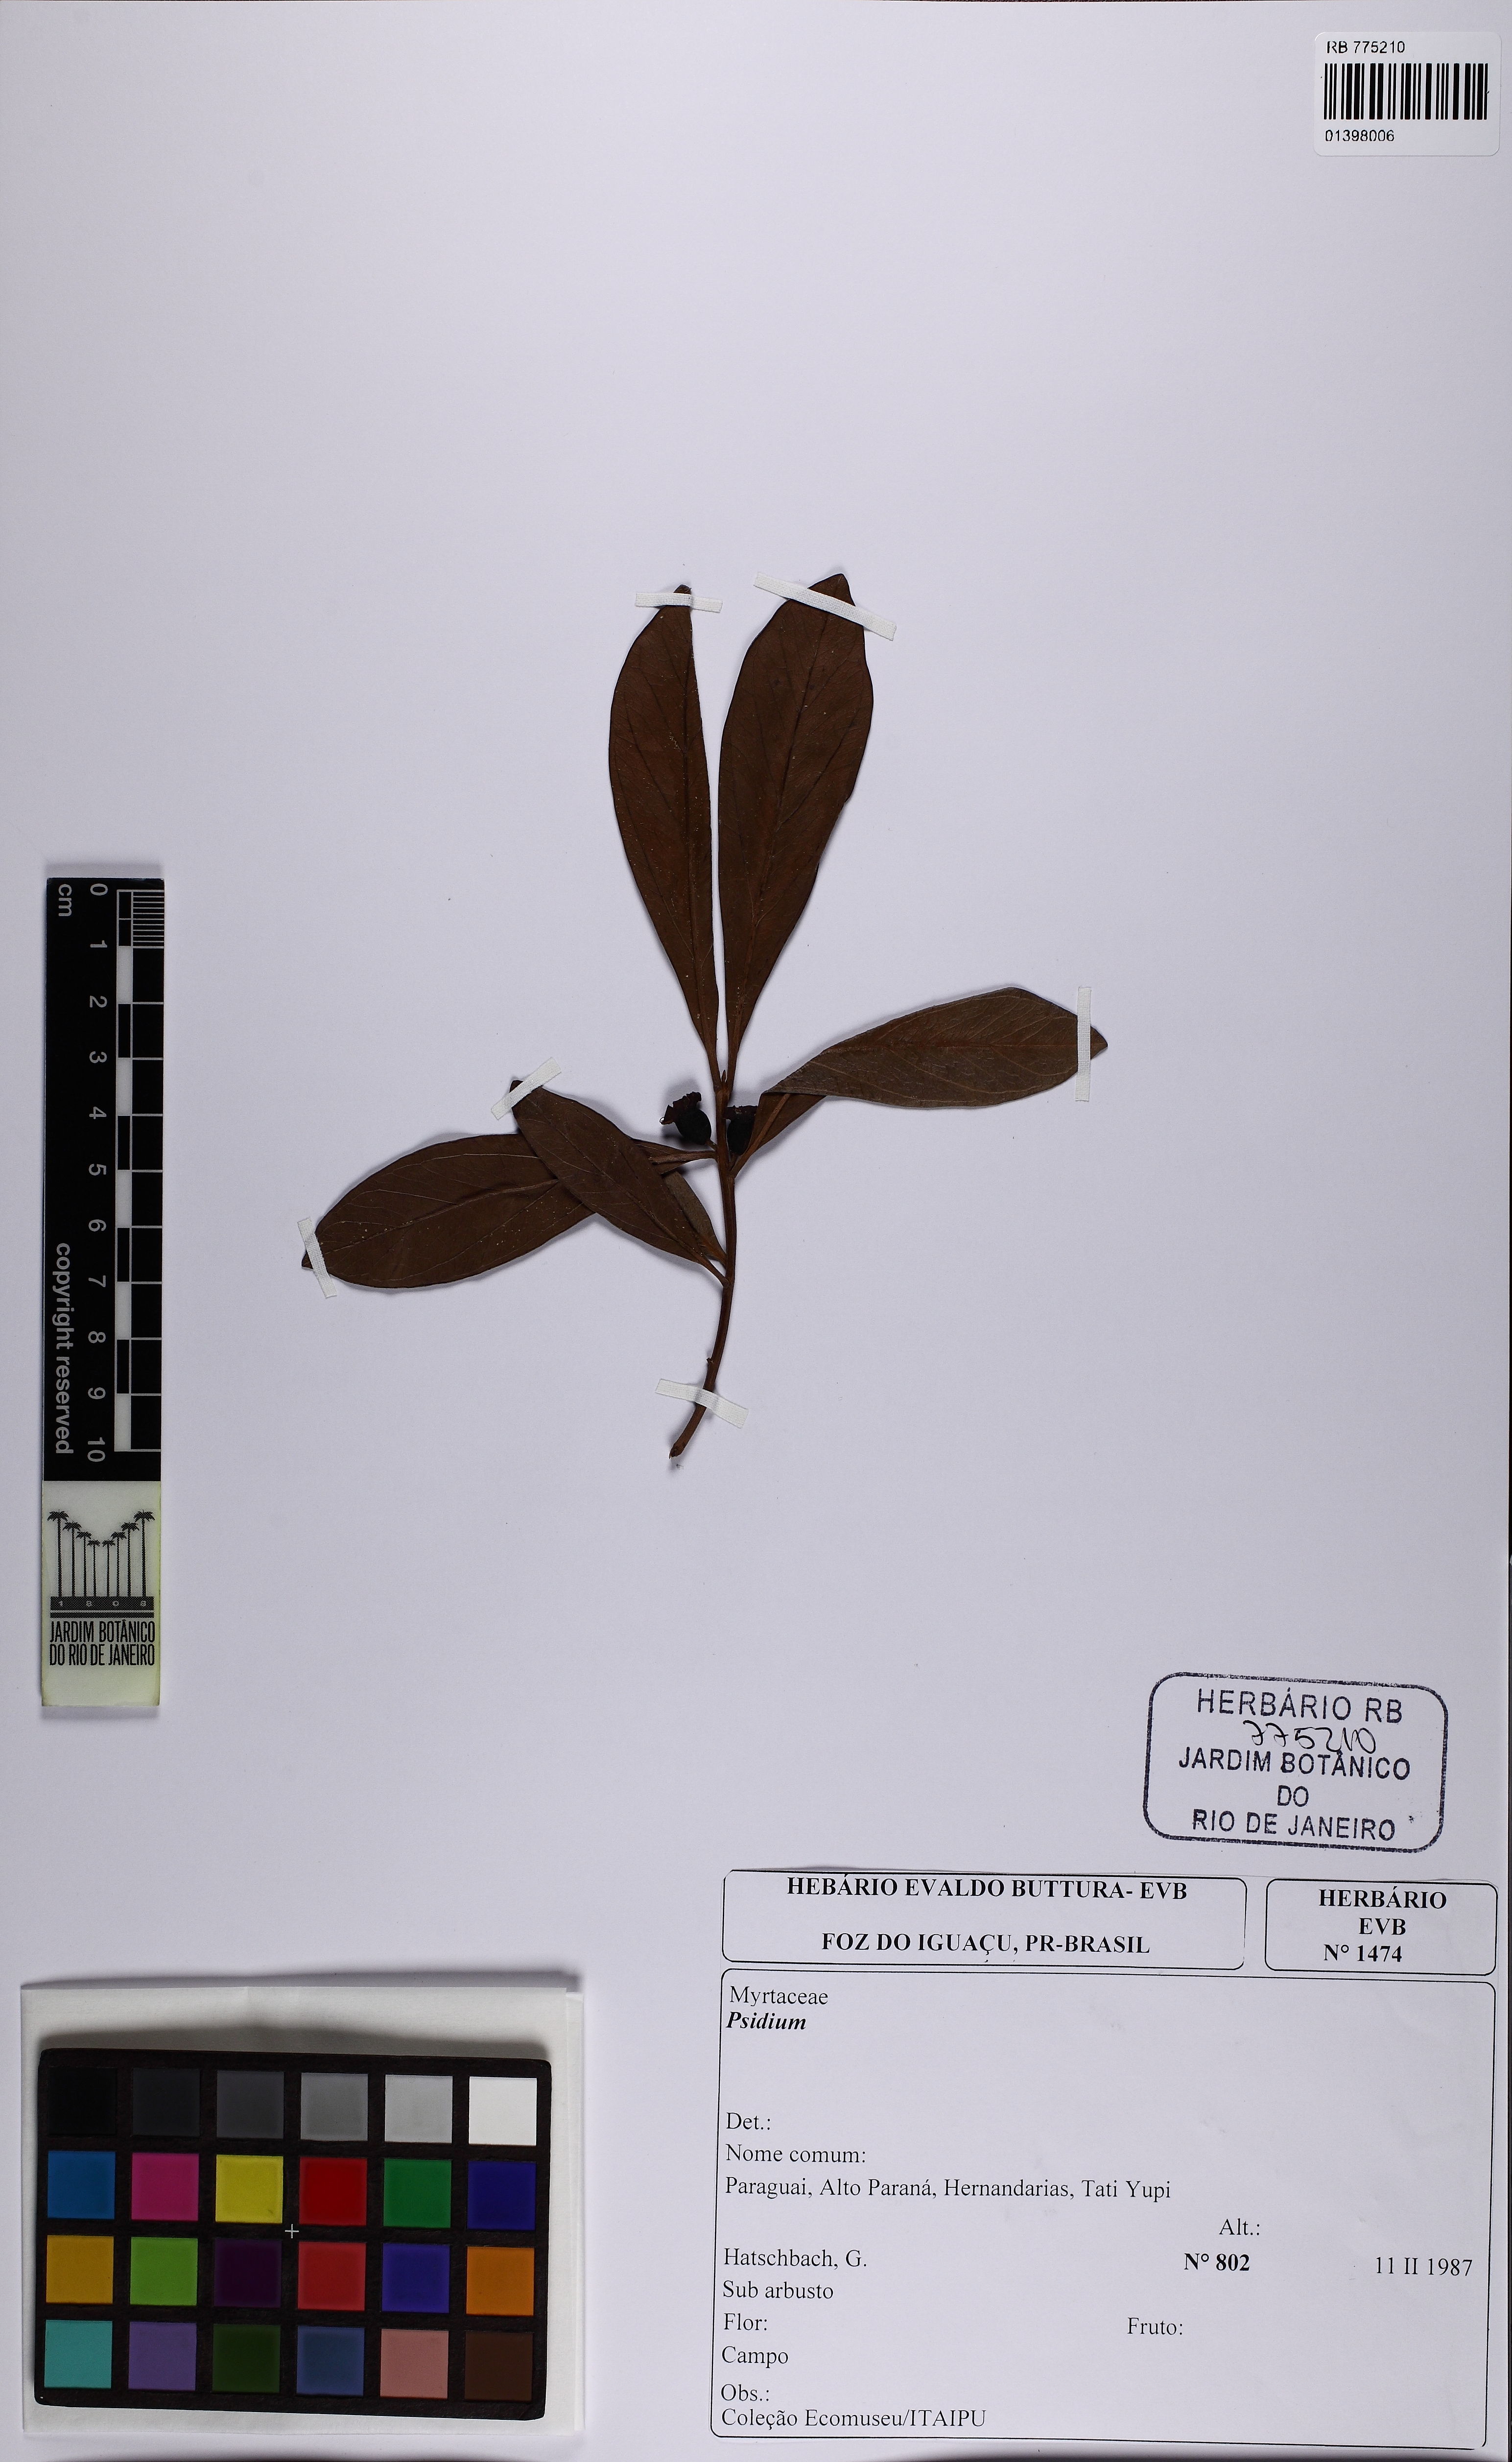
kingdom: Plantae
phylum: Tracheophyta
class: Magnoliopsida
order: Myrtales
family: Myrtaceae
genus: Psidium
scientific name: Psidium australe
